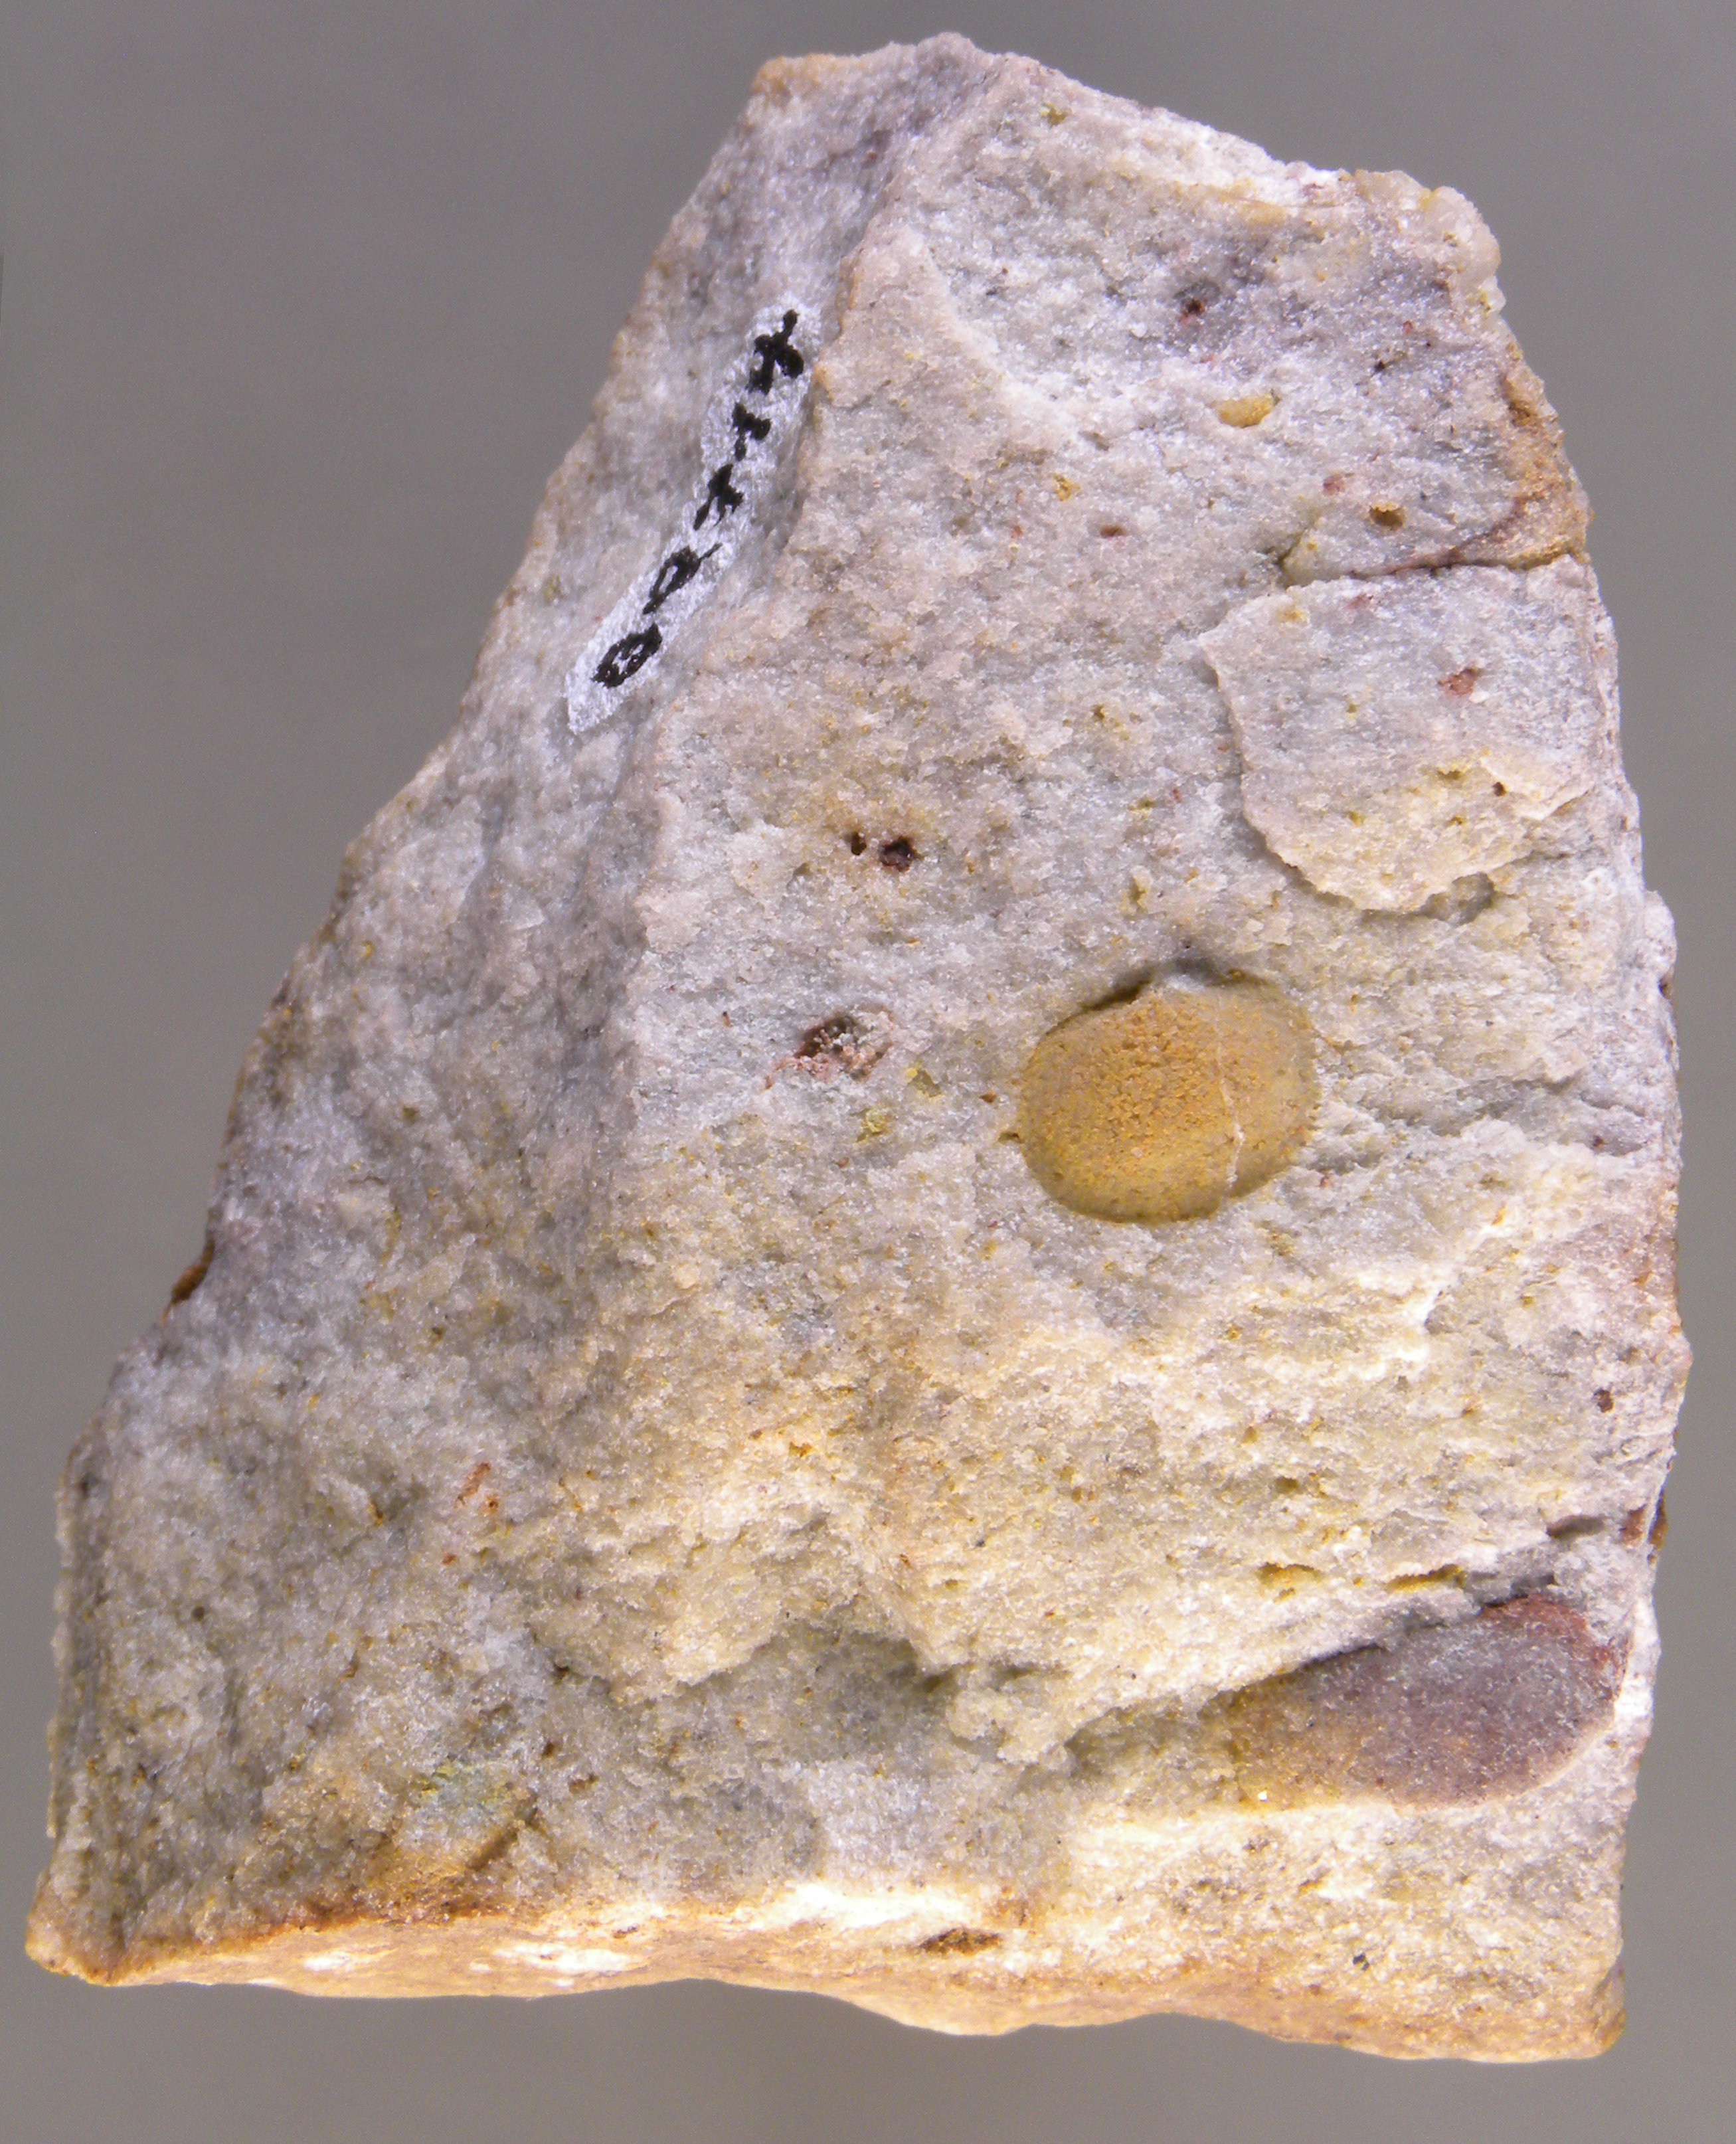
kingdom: Animalia
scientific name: Animalia
